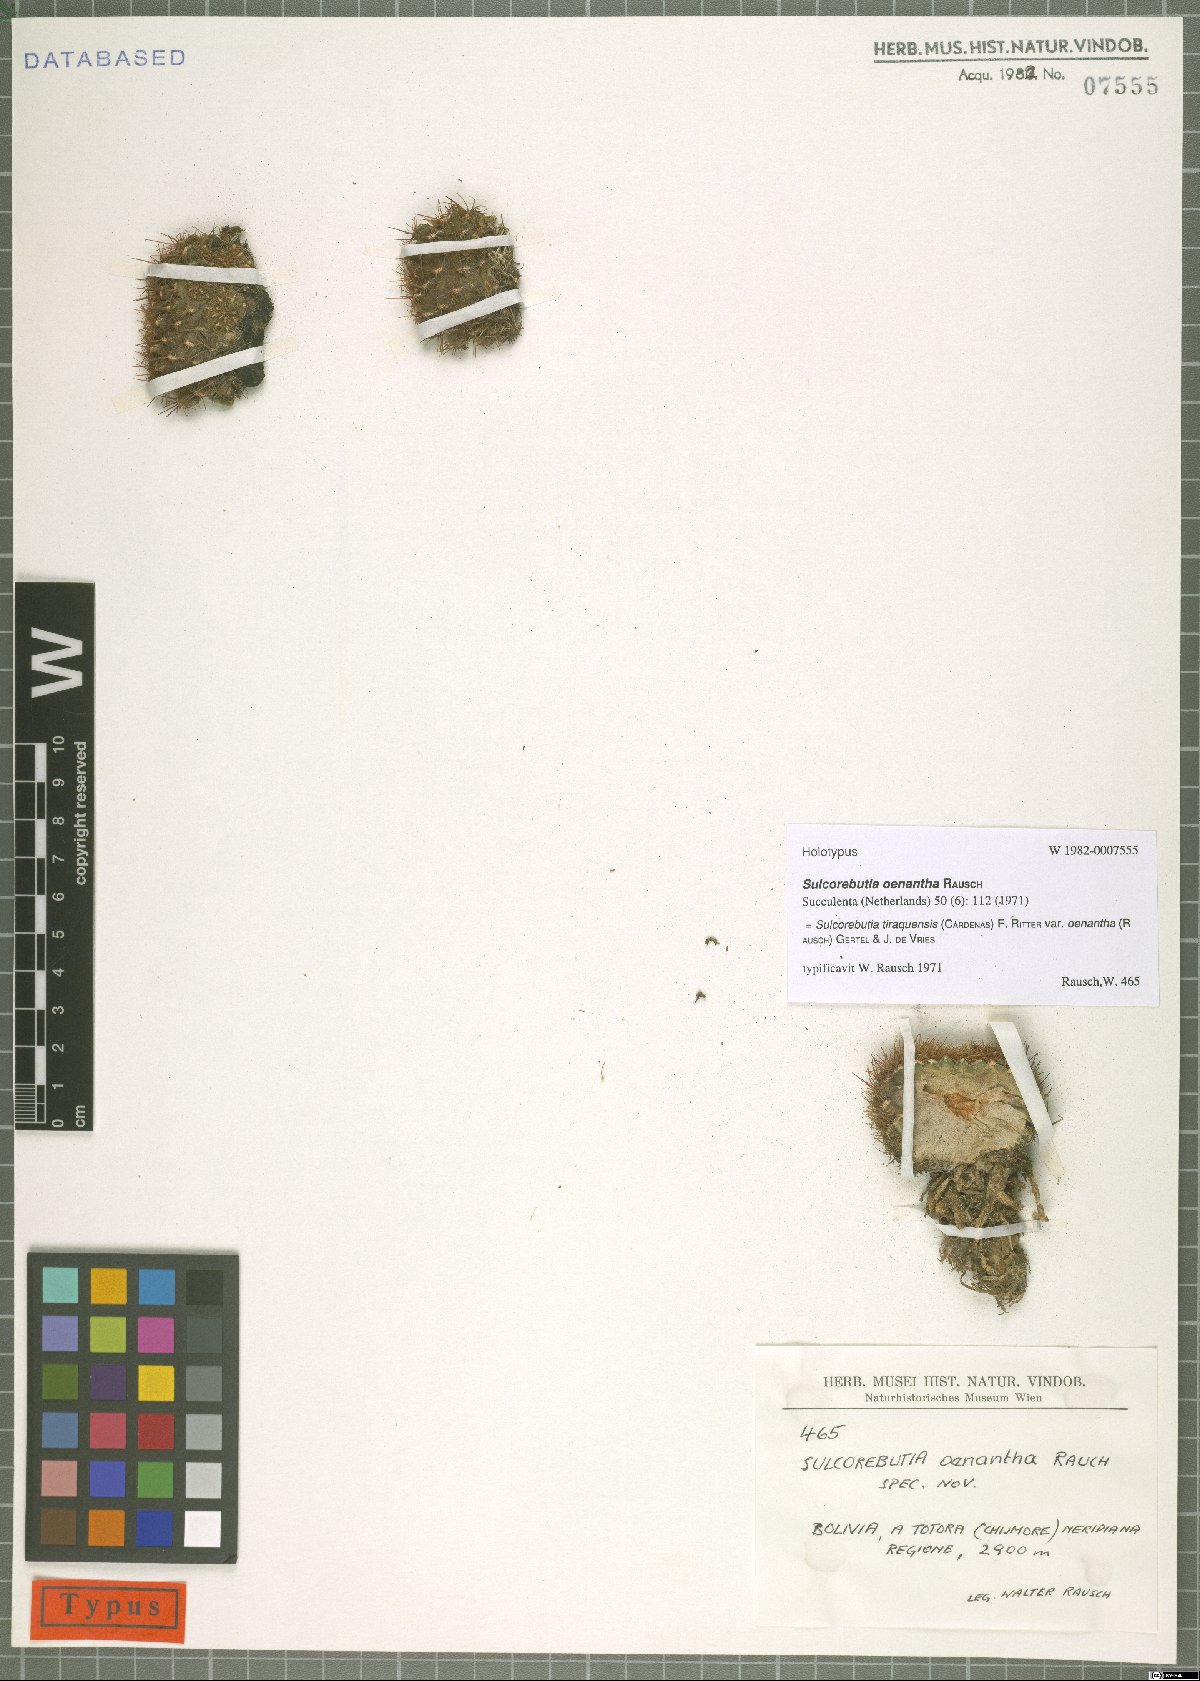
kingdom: Plantae
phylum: Tracheophyta
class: Magnoliopsida
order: Caryophyllales
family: Cactaceae
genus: Weingartia
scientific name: Weingartia steinbachii
